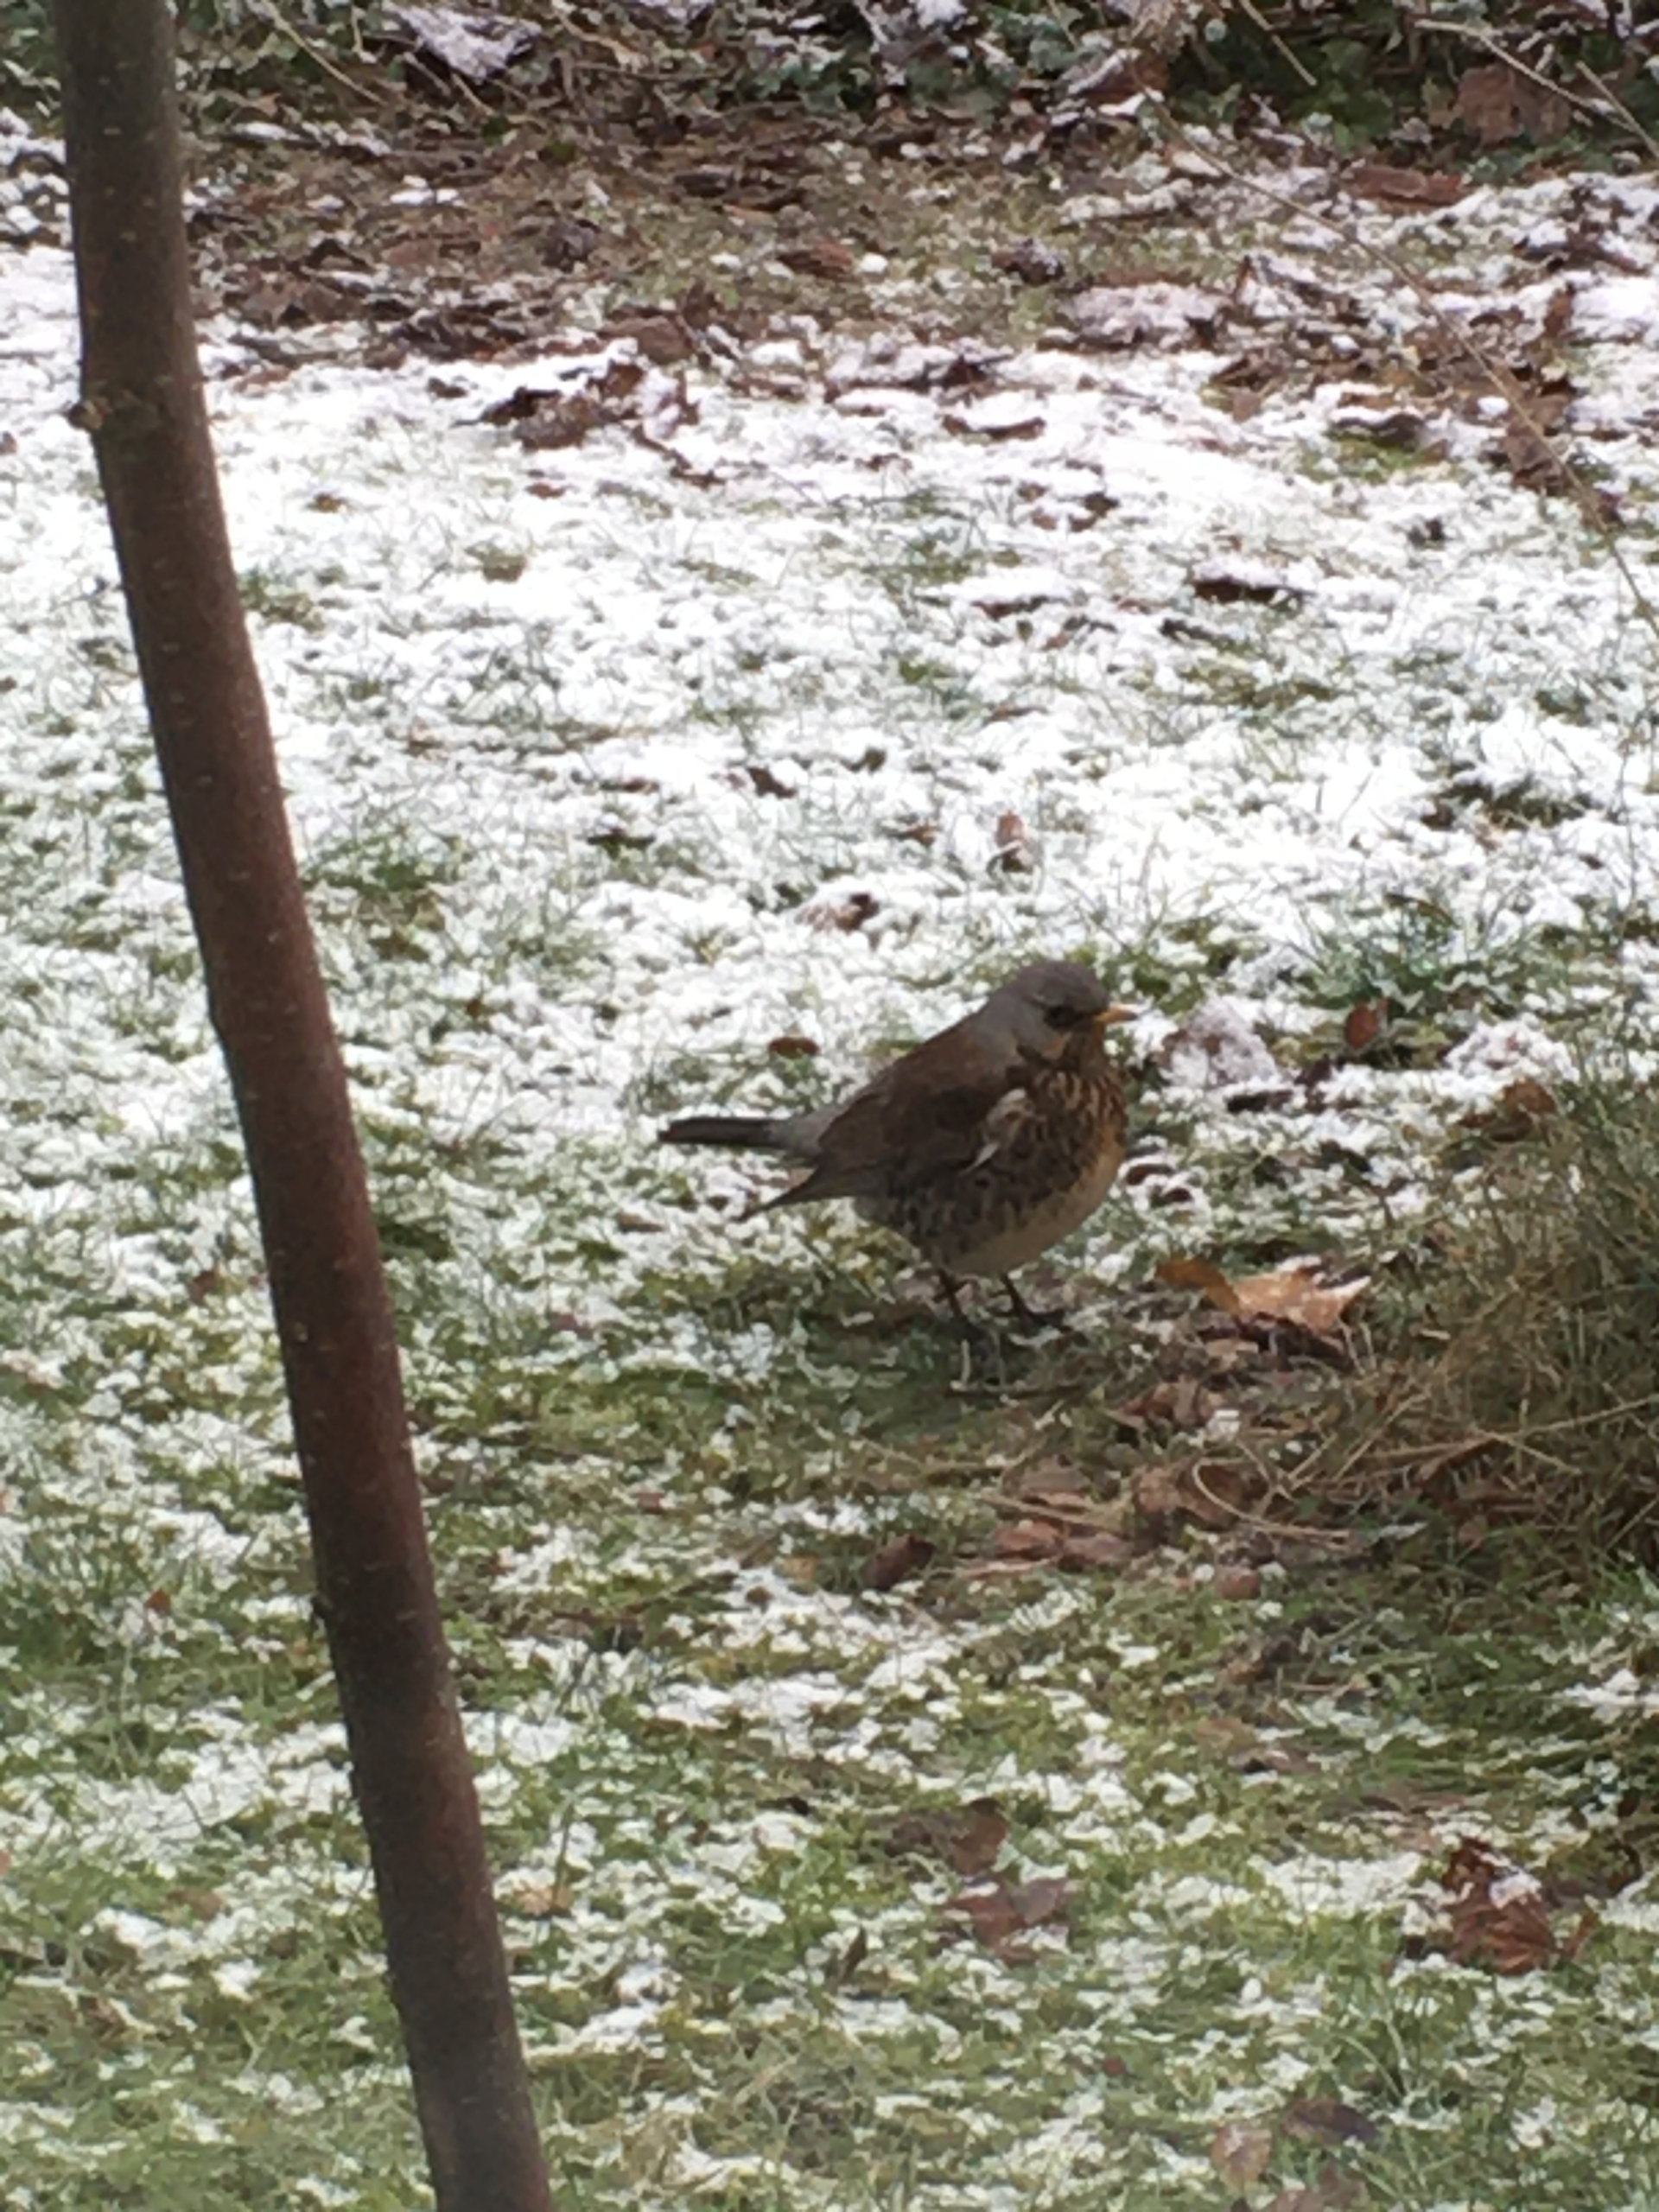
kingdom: Animalia
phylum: Chordata
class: Aves
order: Passeriformes
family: Turdidae
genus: Turdus
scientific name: Turdus pilaris
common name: Sjagger
